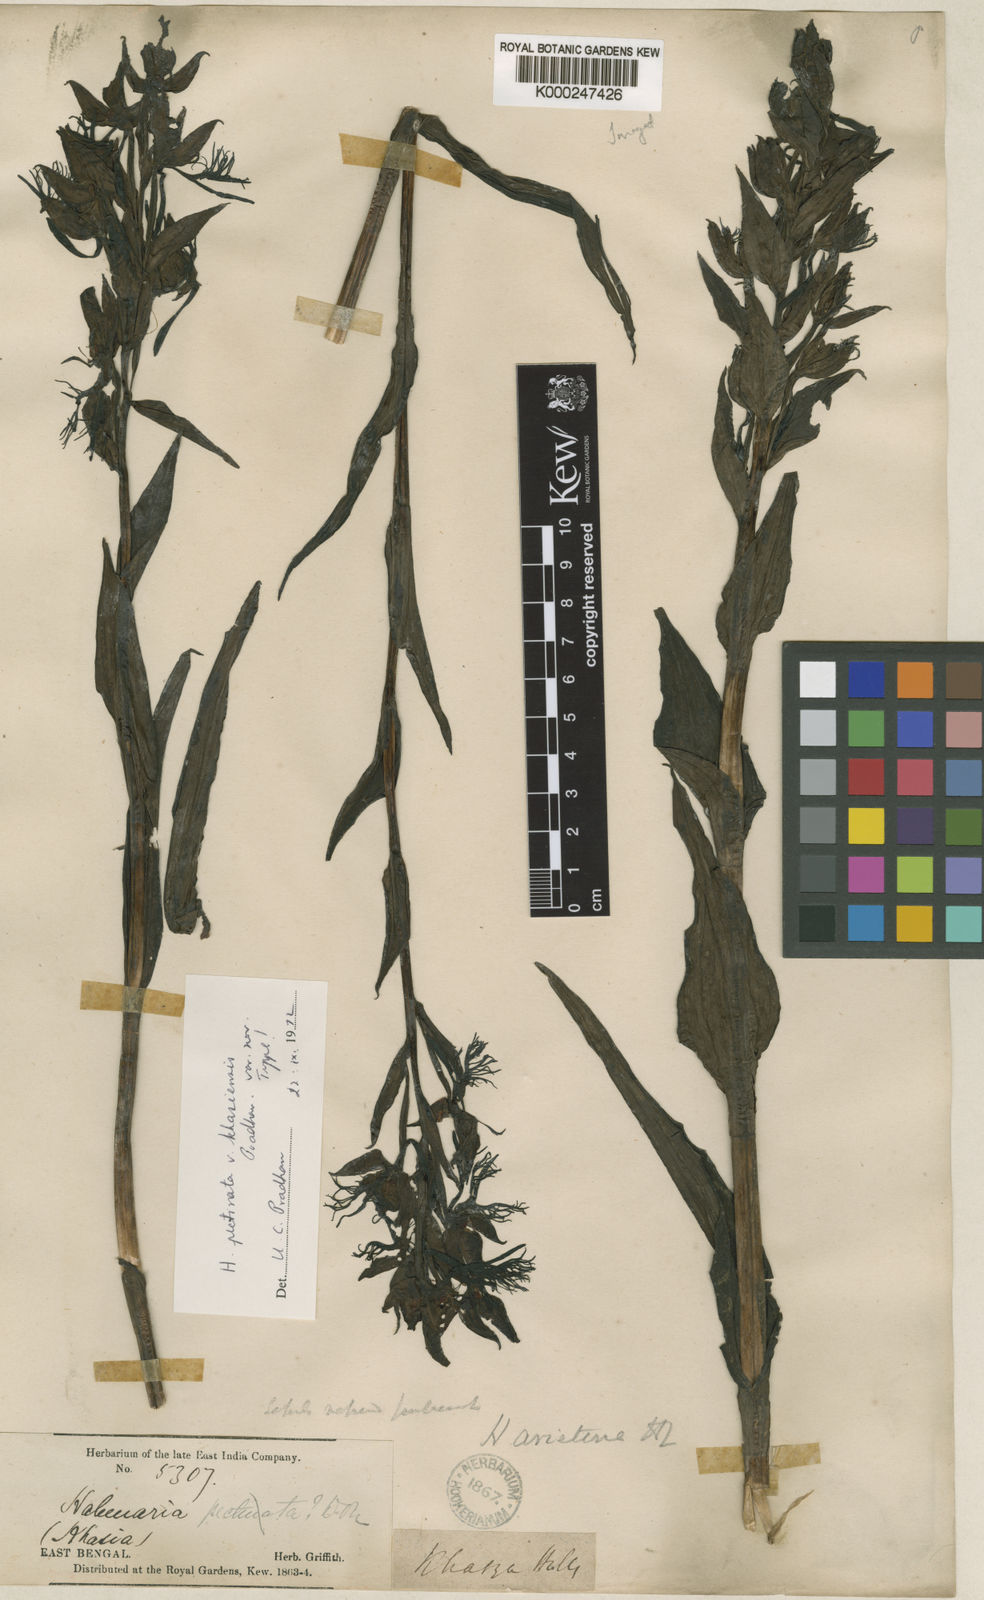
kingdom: Plantae
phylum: Tracheophyta
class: Liliopsida
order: Asparagales
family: Orchidaceae
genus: Habenaria
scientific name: Habenaria pectinata
